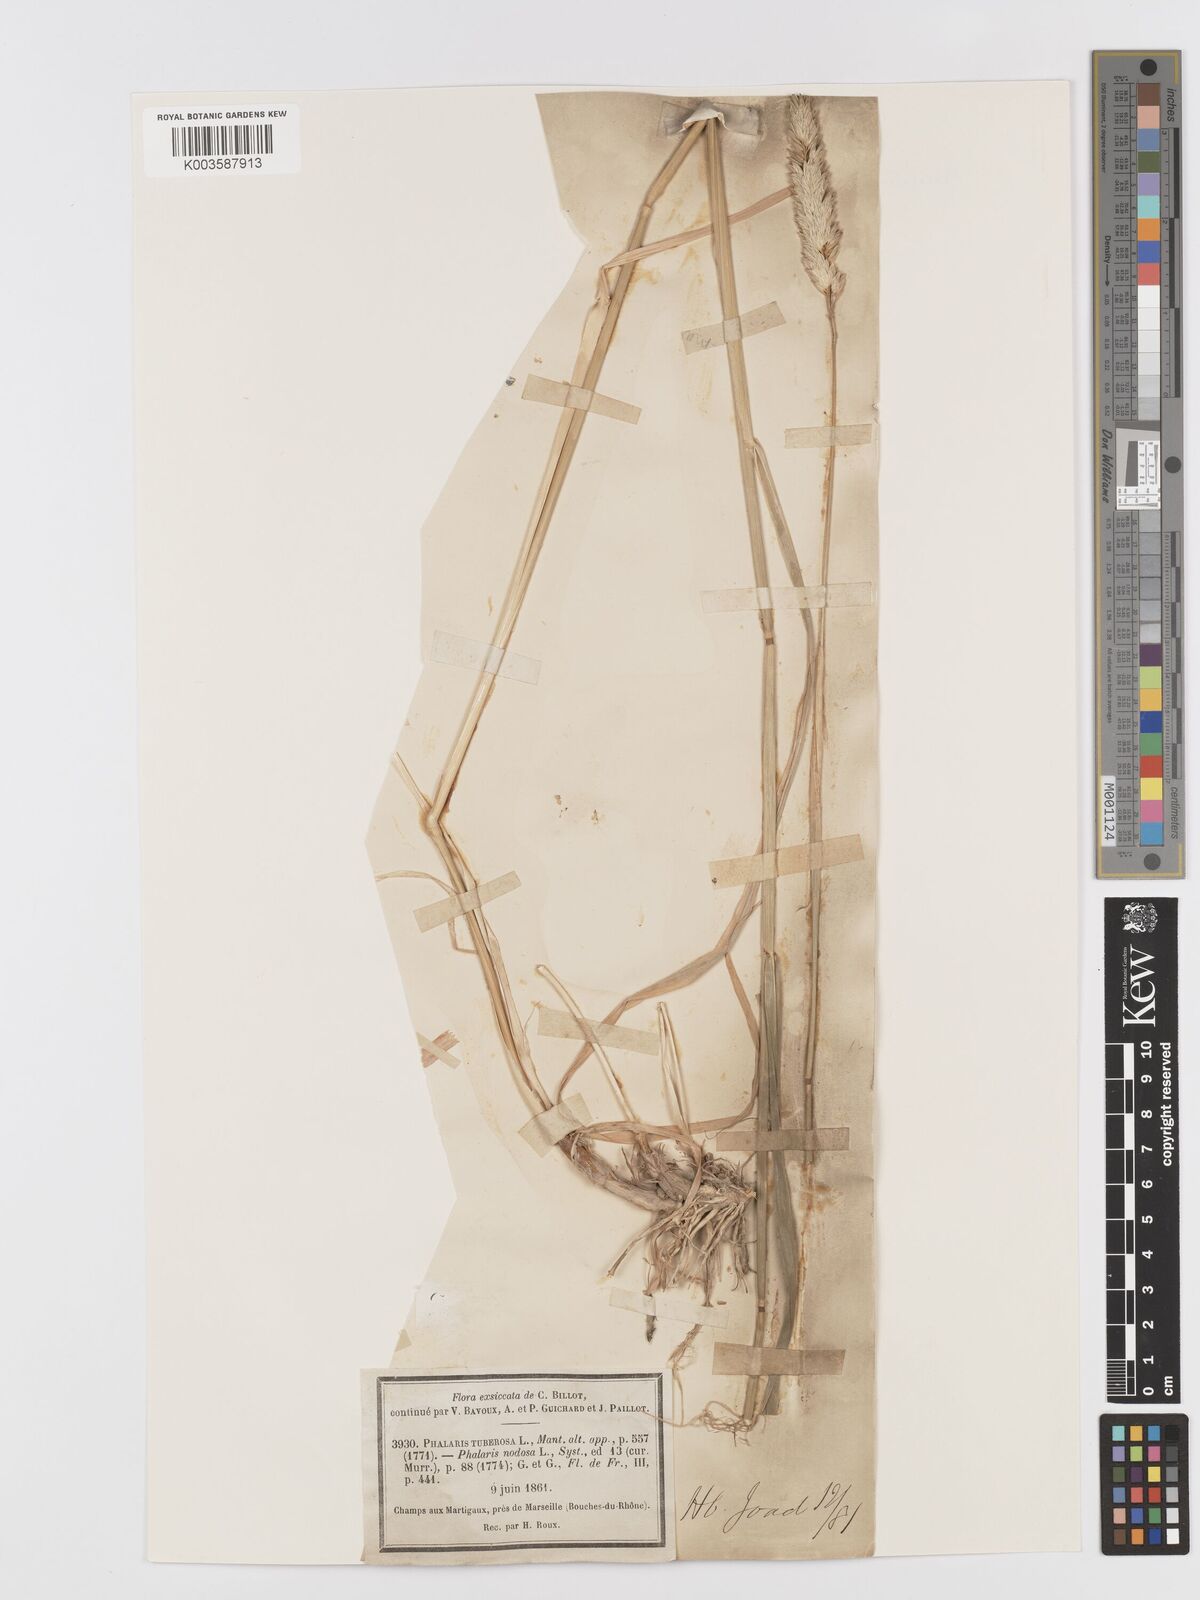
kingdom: Plantae
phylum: Tracheophyta
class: Liliopsida
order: Poales
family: Poaceae
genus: Phalaris
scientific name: Phalaris
